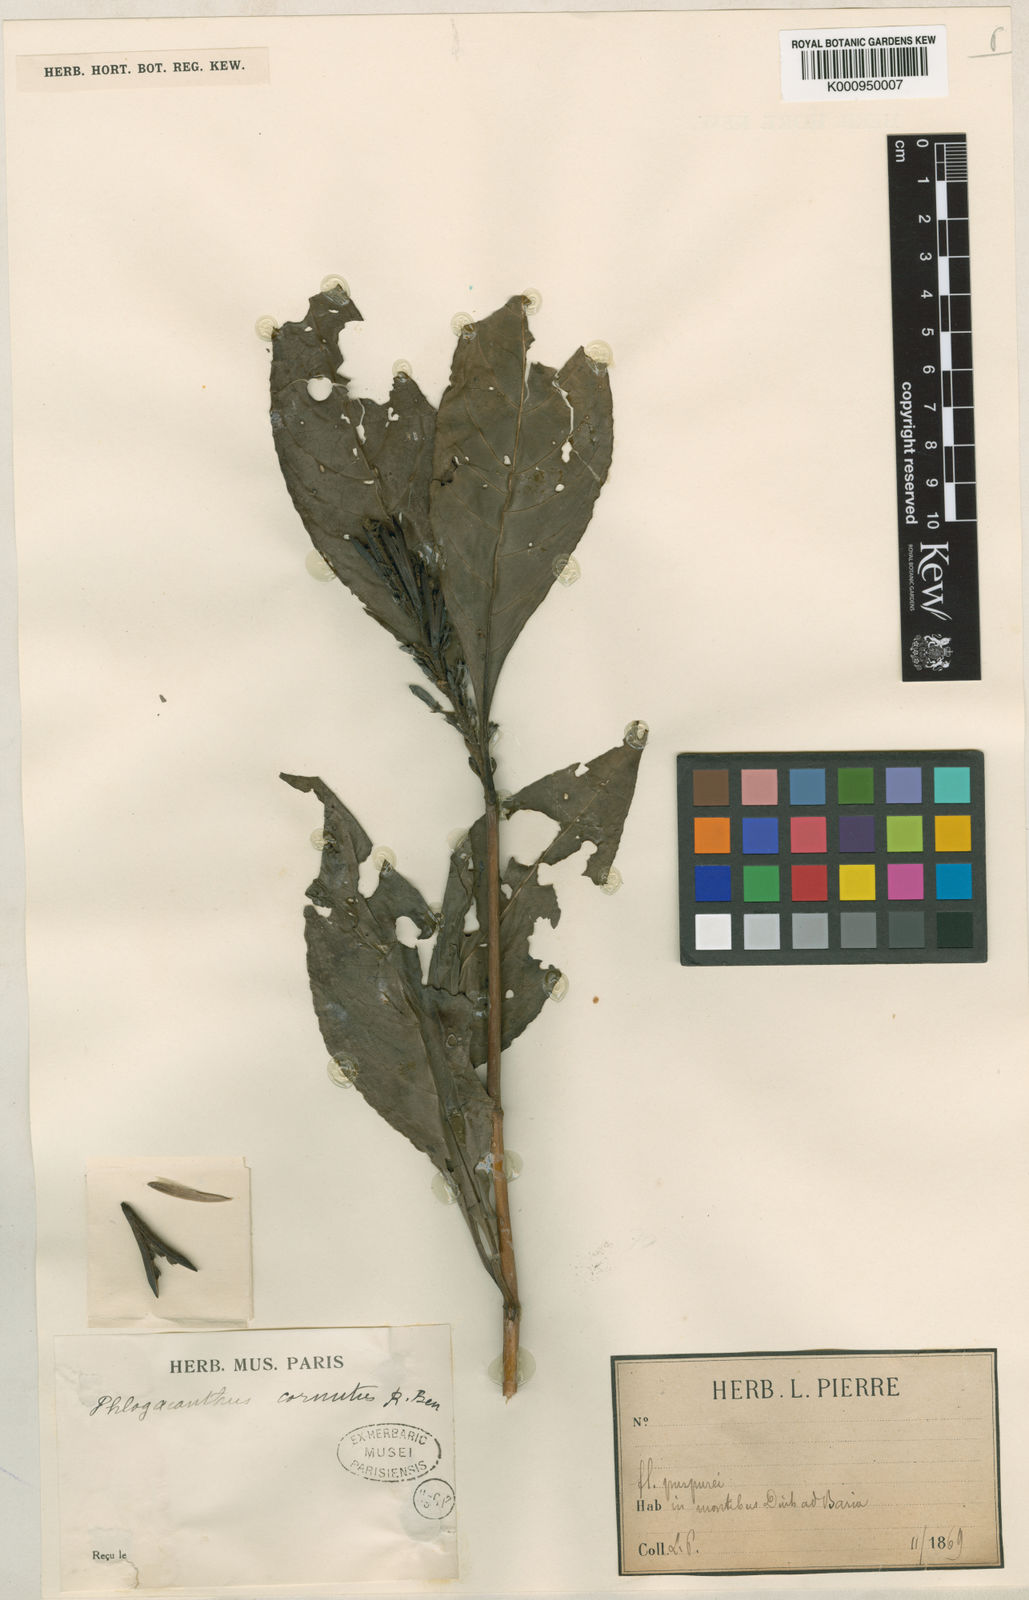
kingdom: Plantae
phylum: Tracheophyta
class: Magnoliopsida
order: Lamiales
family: Acanthaceae
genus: Phlogacanthus
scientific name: Phlogacanthus cornutus
